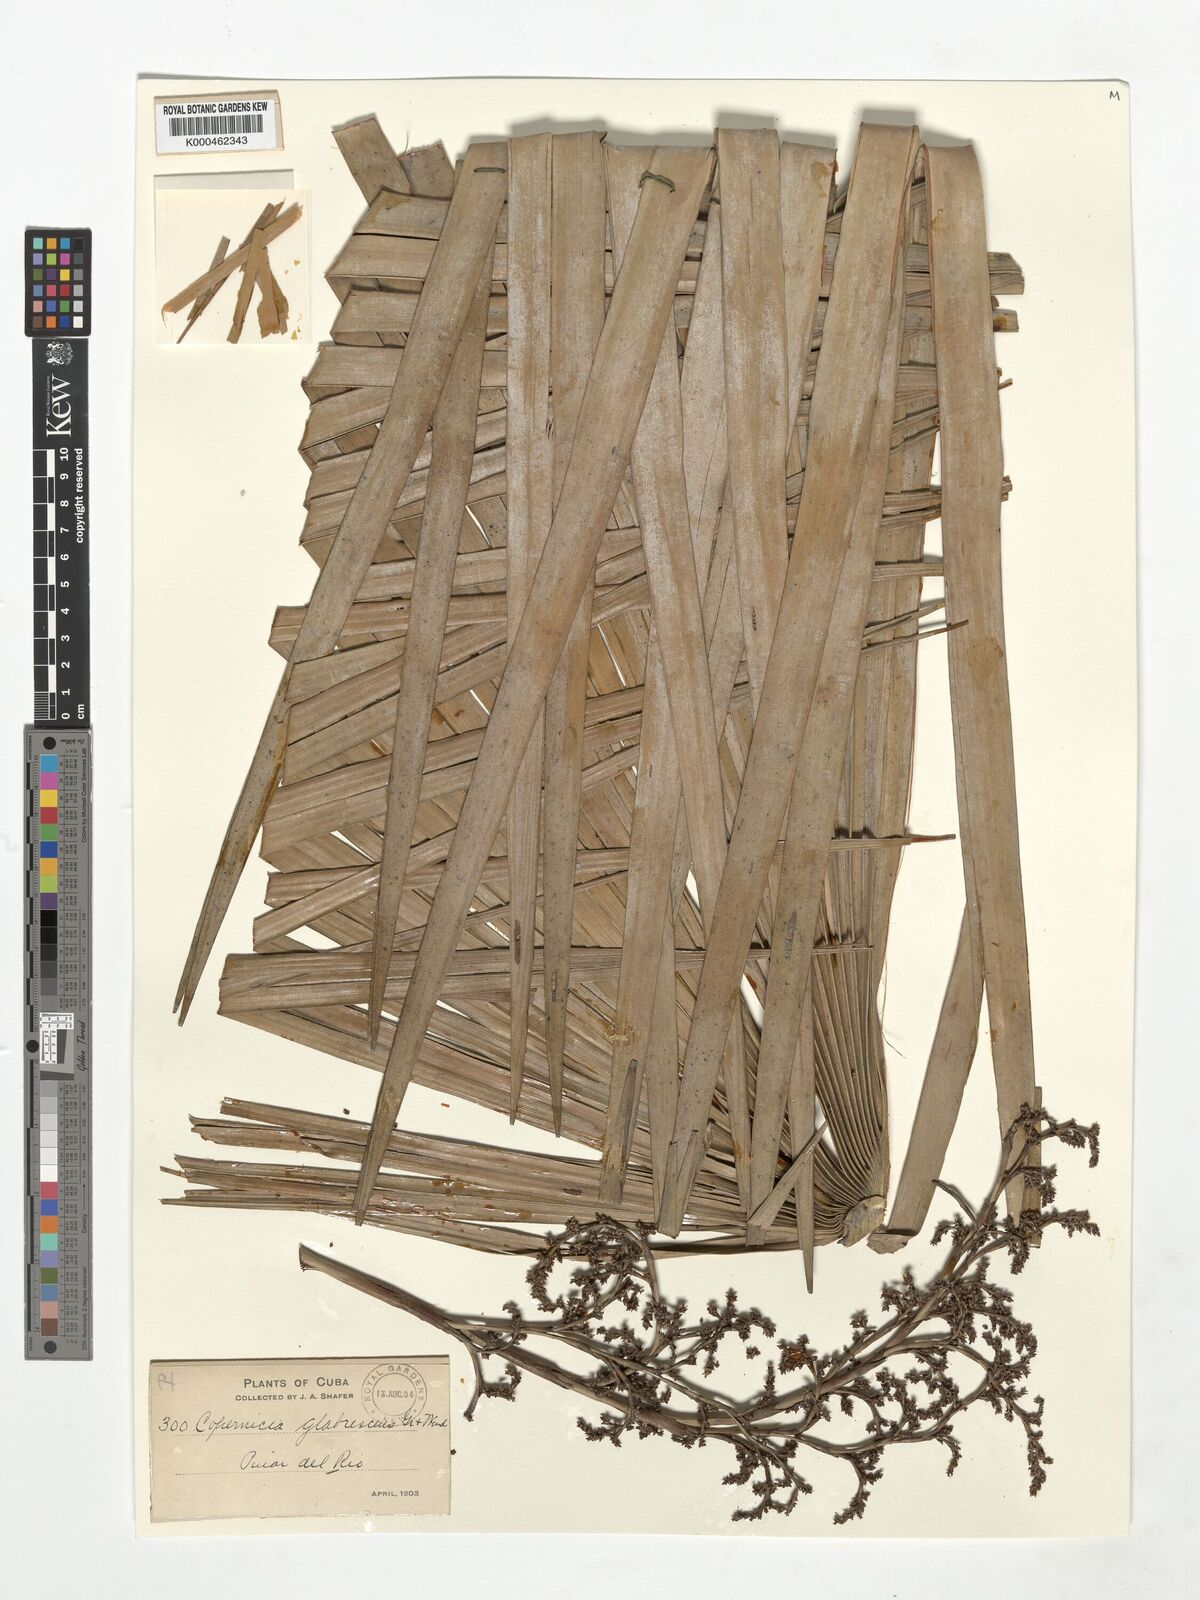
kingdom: Plantae
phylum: Tracheophyta
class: Liliopsida
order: Arecales
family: Arecaceae
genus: Copernicia
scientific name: Copernicia glabrescens
